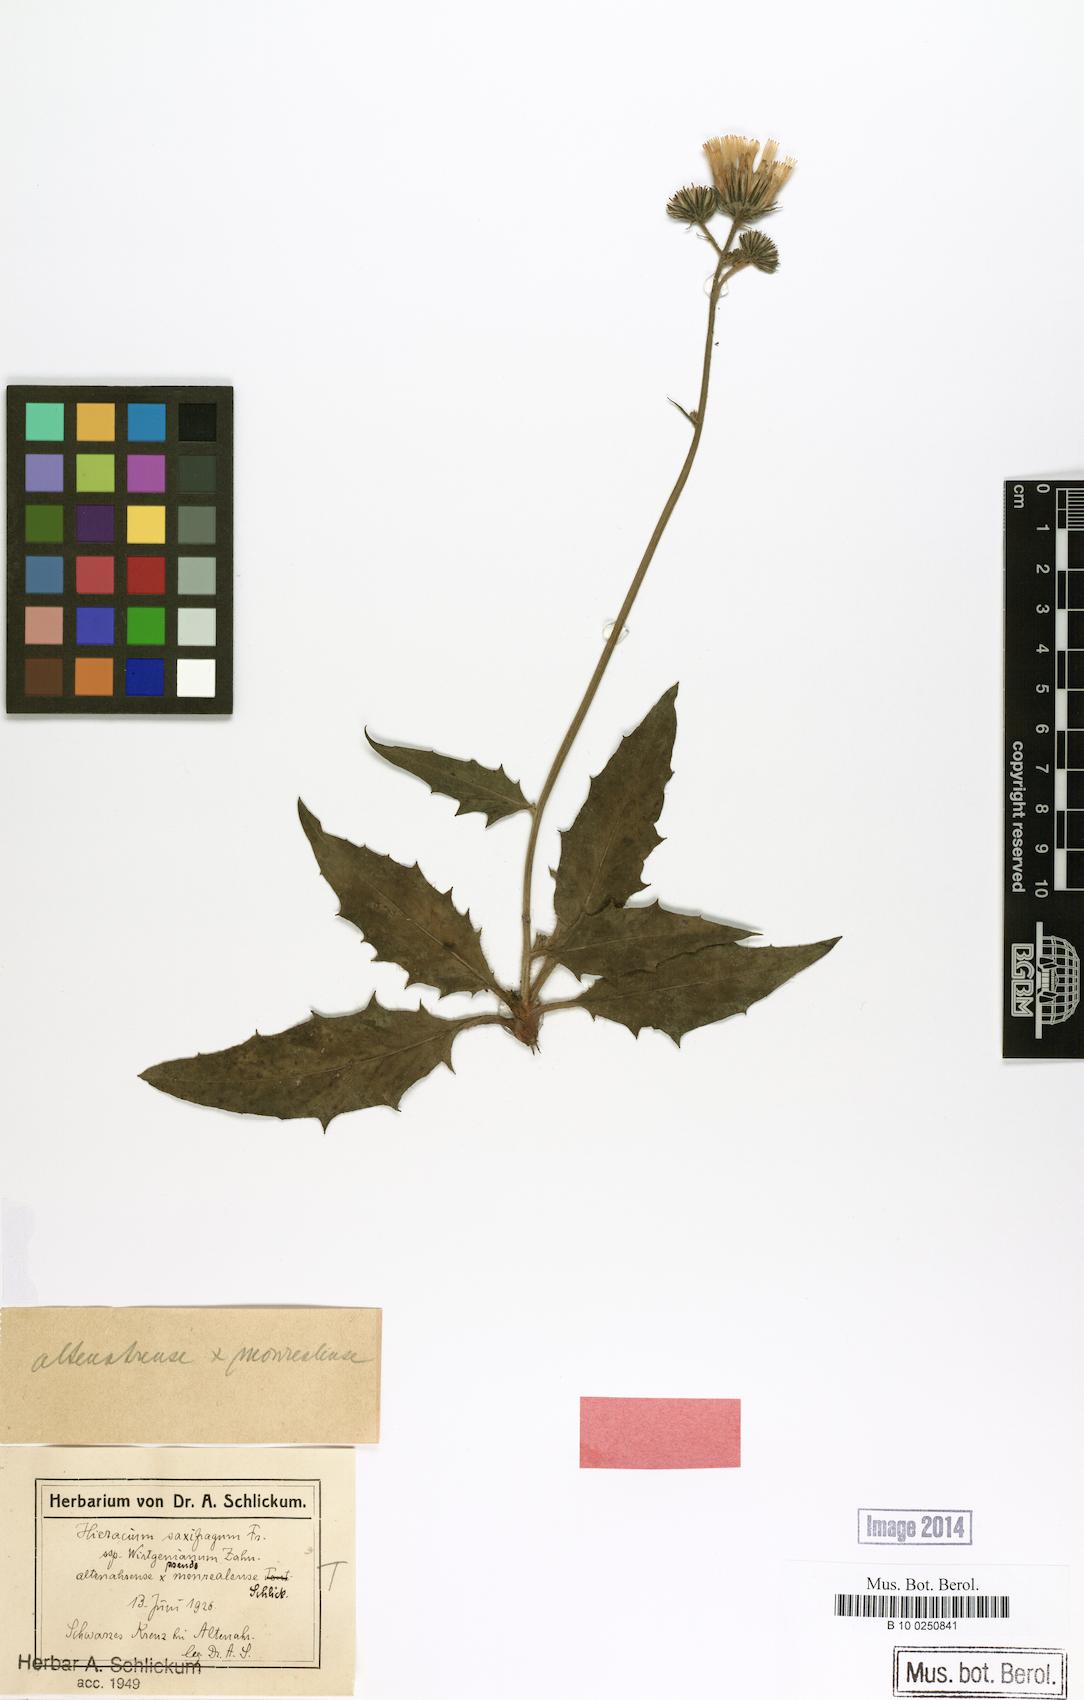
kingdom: Plantae
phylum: Tracheophyta
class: Magnoliopsida
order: Asterales
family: Asteraceae
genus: Hieracium
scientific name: Hieracium saxifragum
